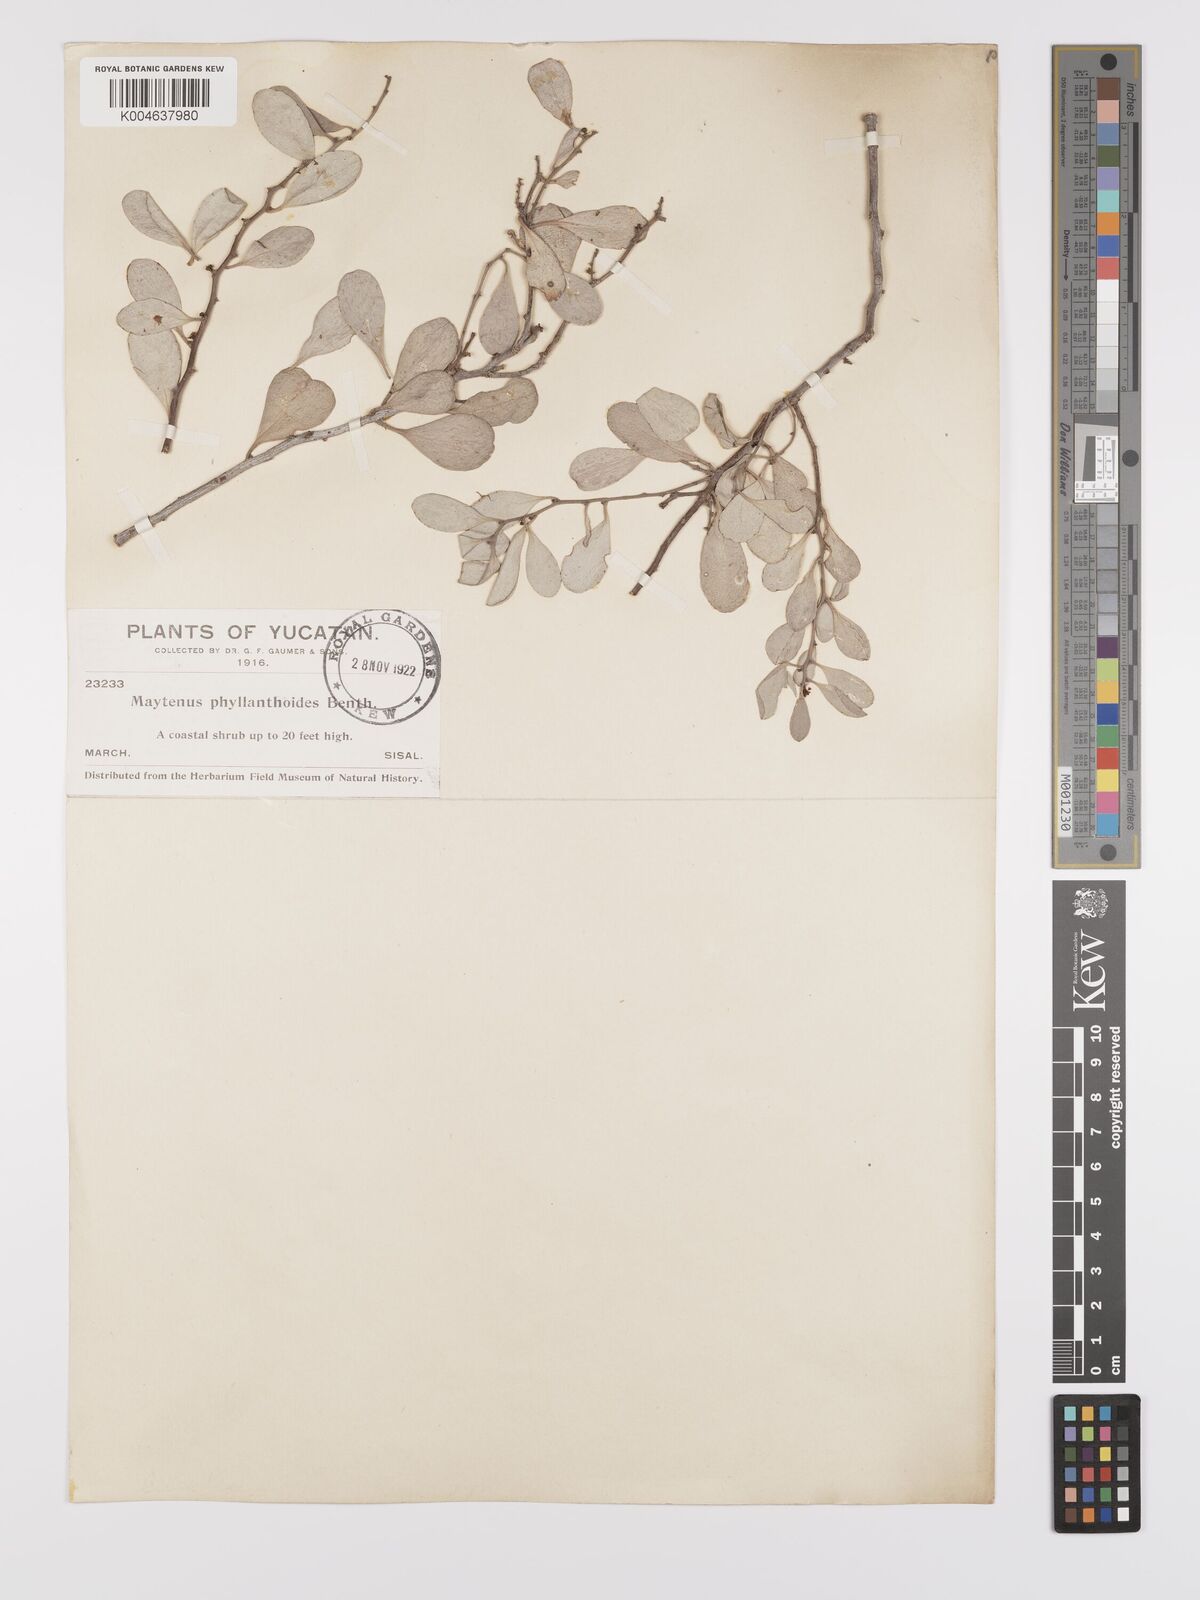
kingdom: Plantae
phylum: Tracheophyta
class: Magnoliopsida
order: Celastrales
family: Celastraceae
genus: Tricerma
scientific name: Tricerma phyllanthoides
